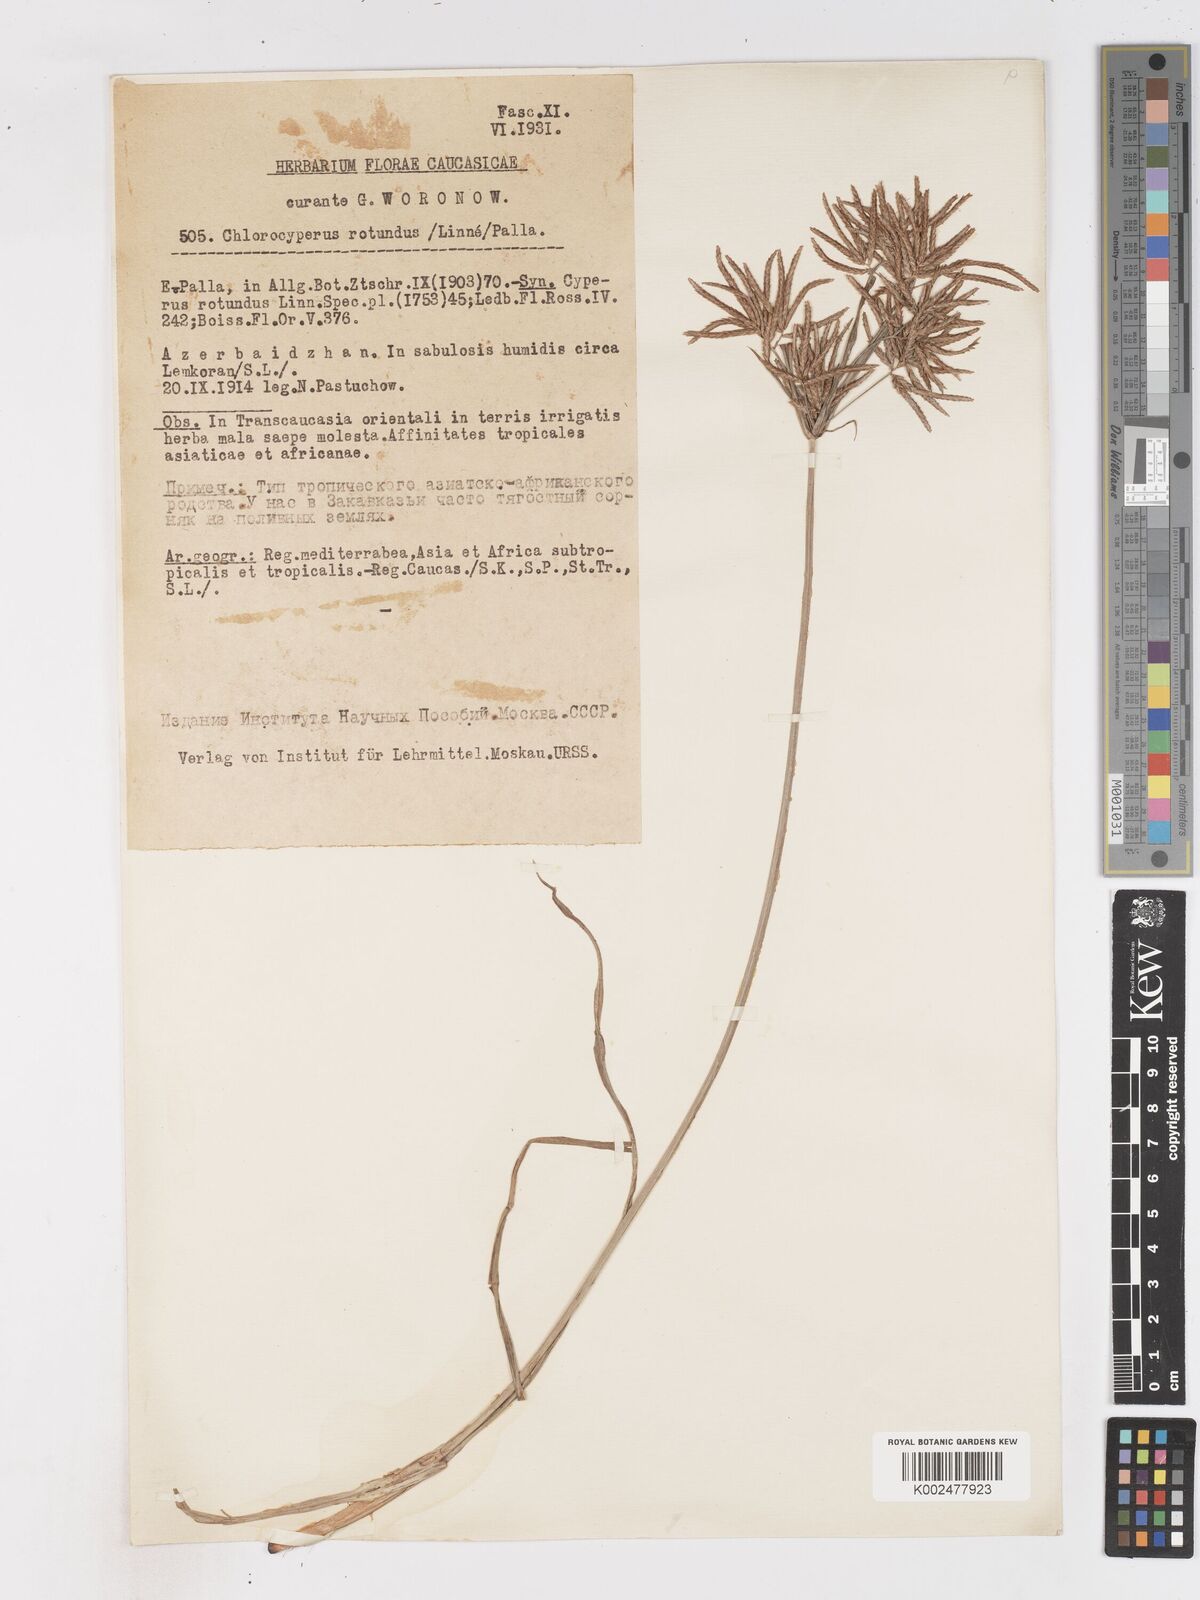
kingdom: Plantae
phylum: Tracheophyta
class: Liliopsida
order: Poales
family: Cyperaceae
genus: Cyperus
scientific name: Cyperus rotundus
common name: Nutgrass
